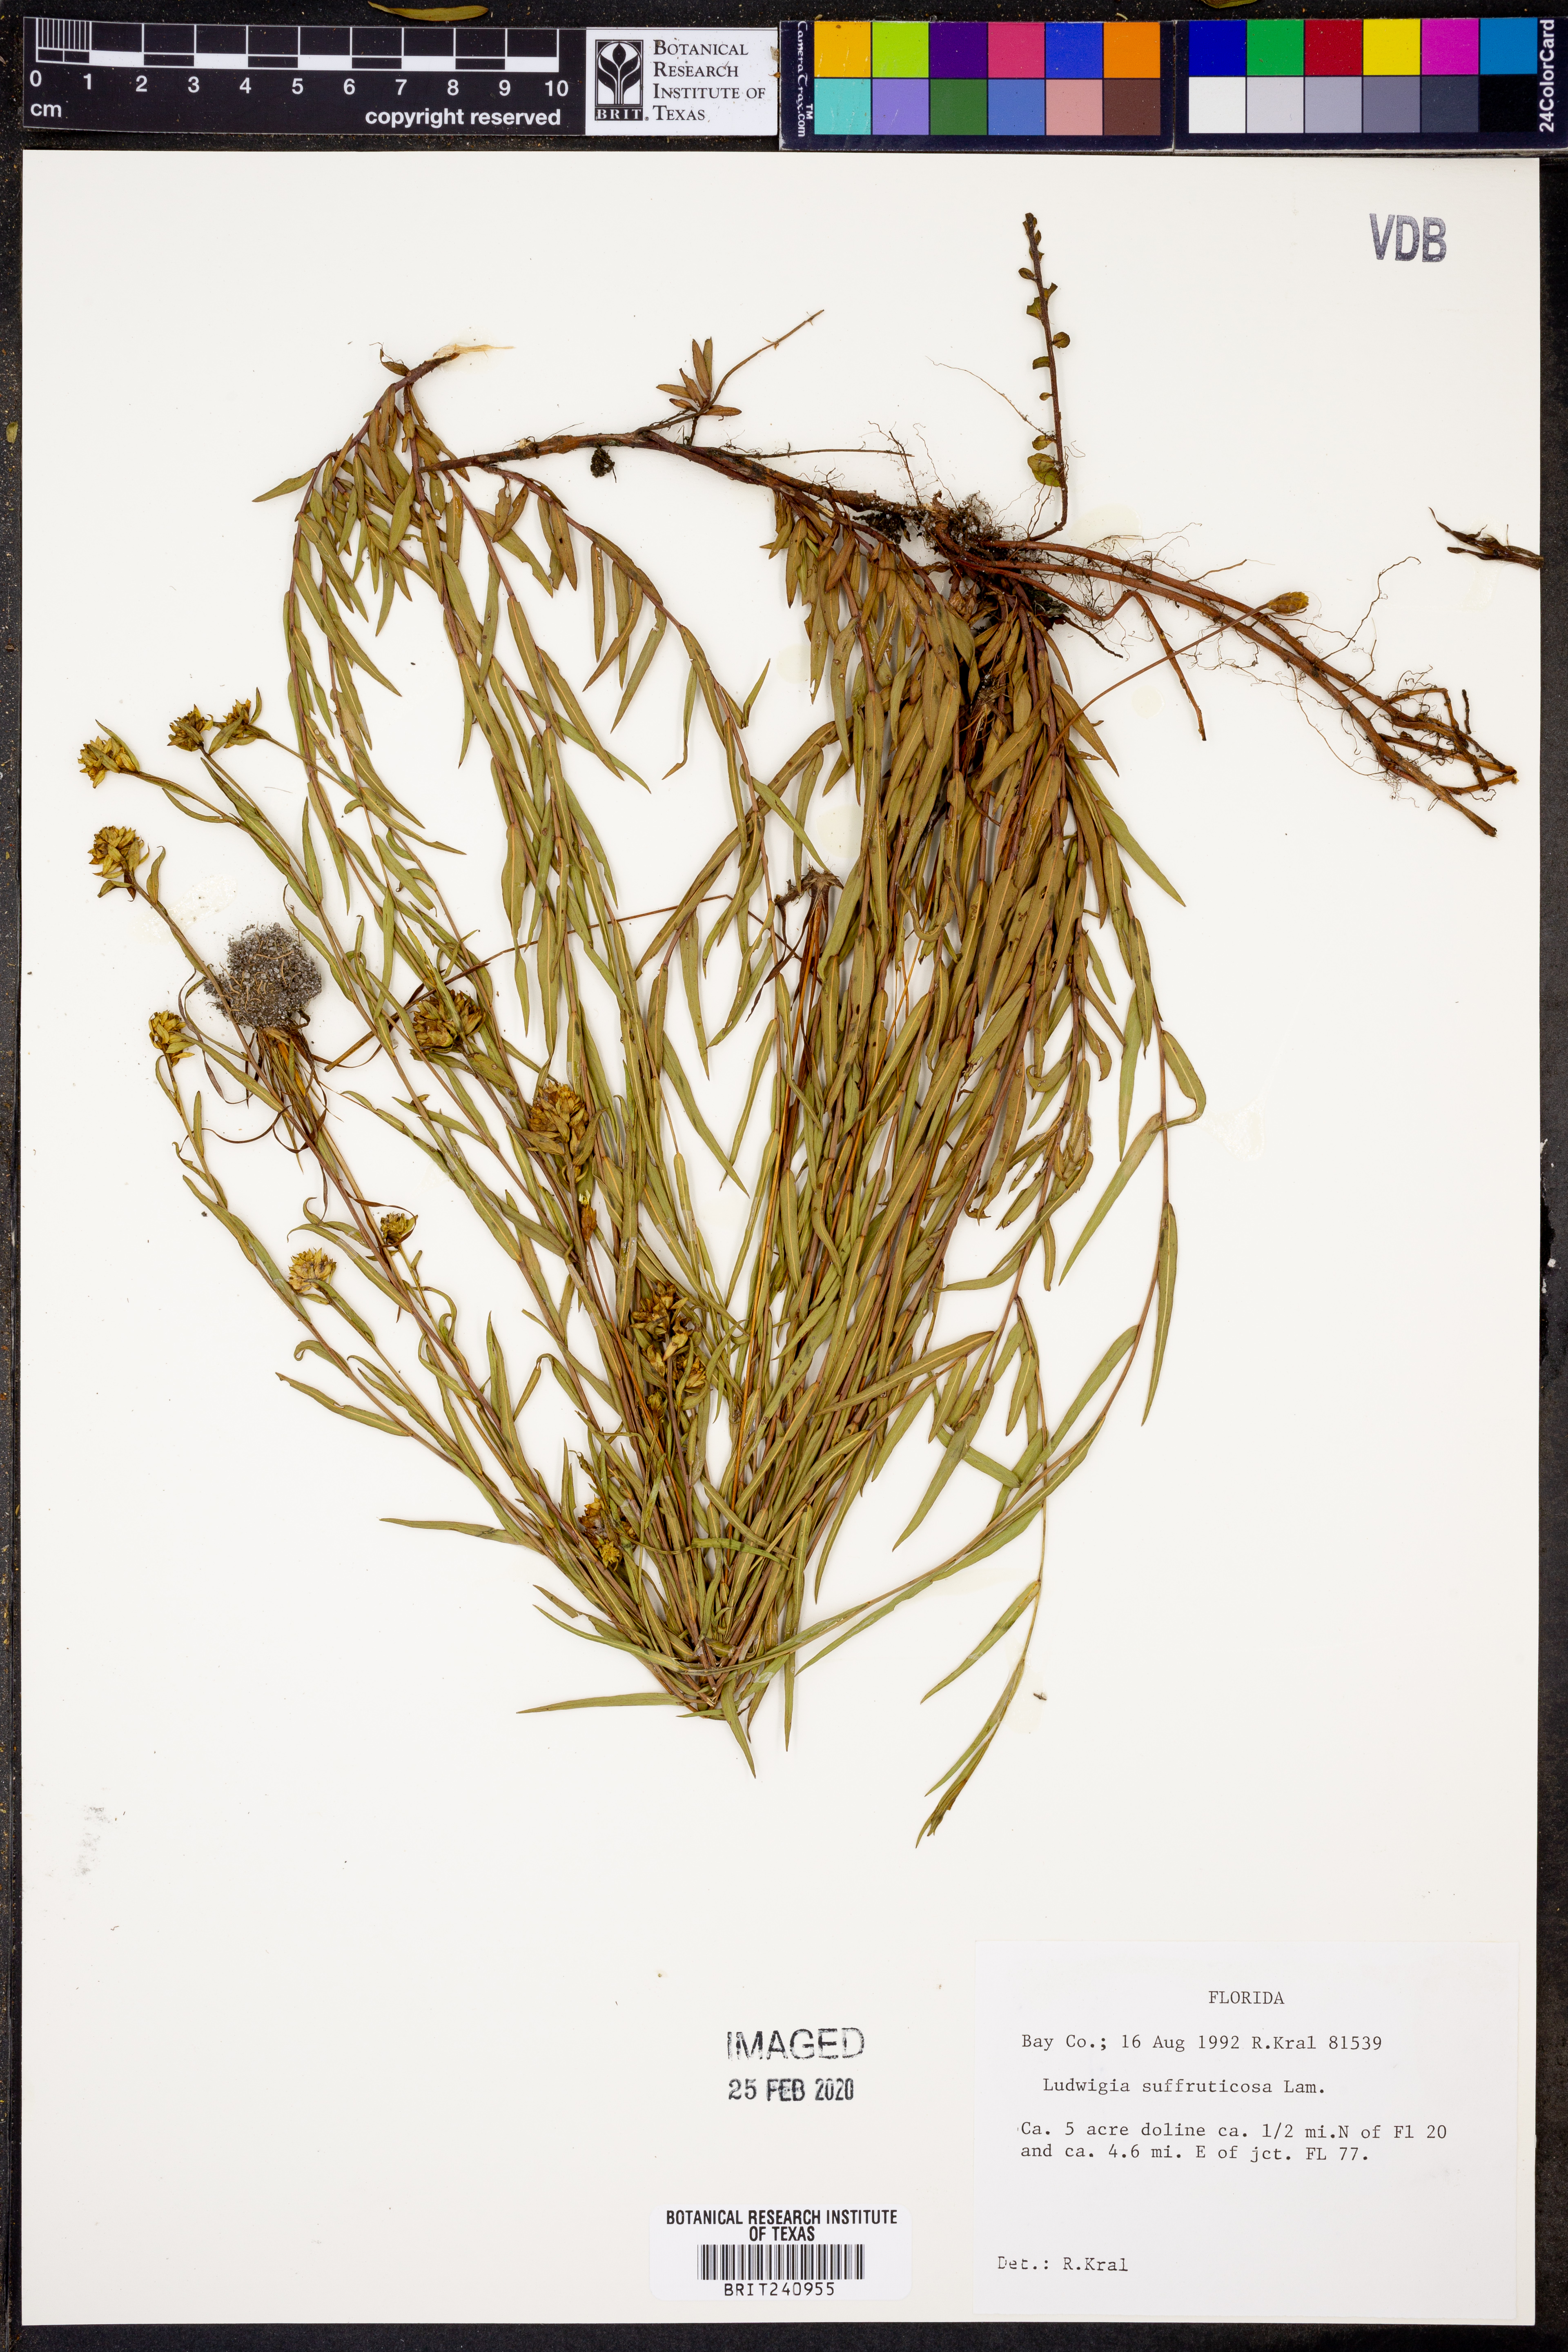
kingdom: Plantae
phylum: Tracheophyta
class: Magnoliopsida
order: Myrtales
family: Onagraceae
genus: Ludwigia
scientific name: Ludwigia suffruticosa
